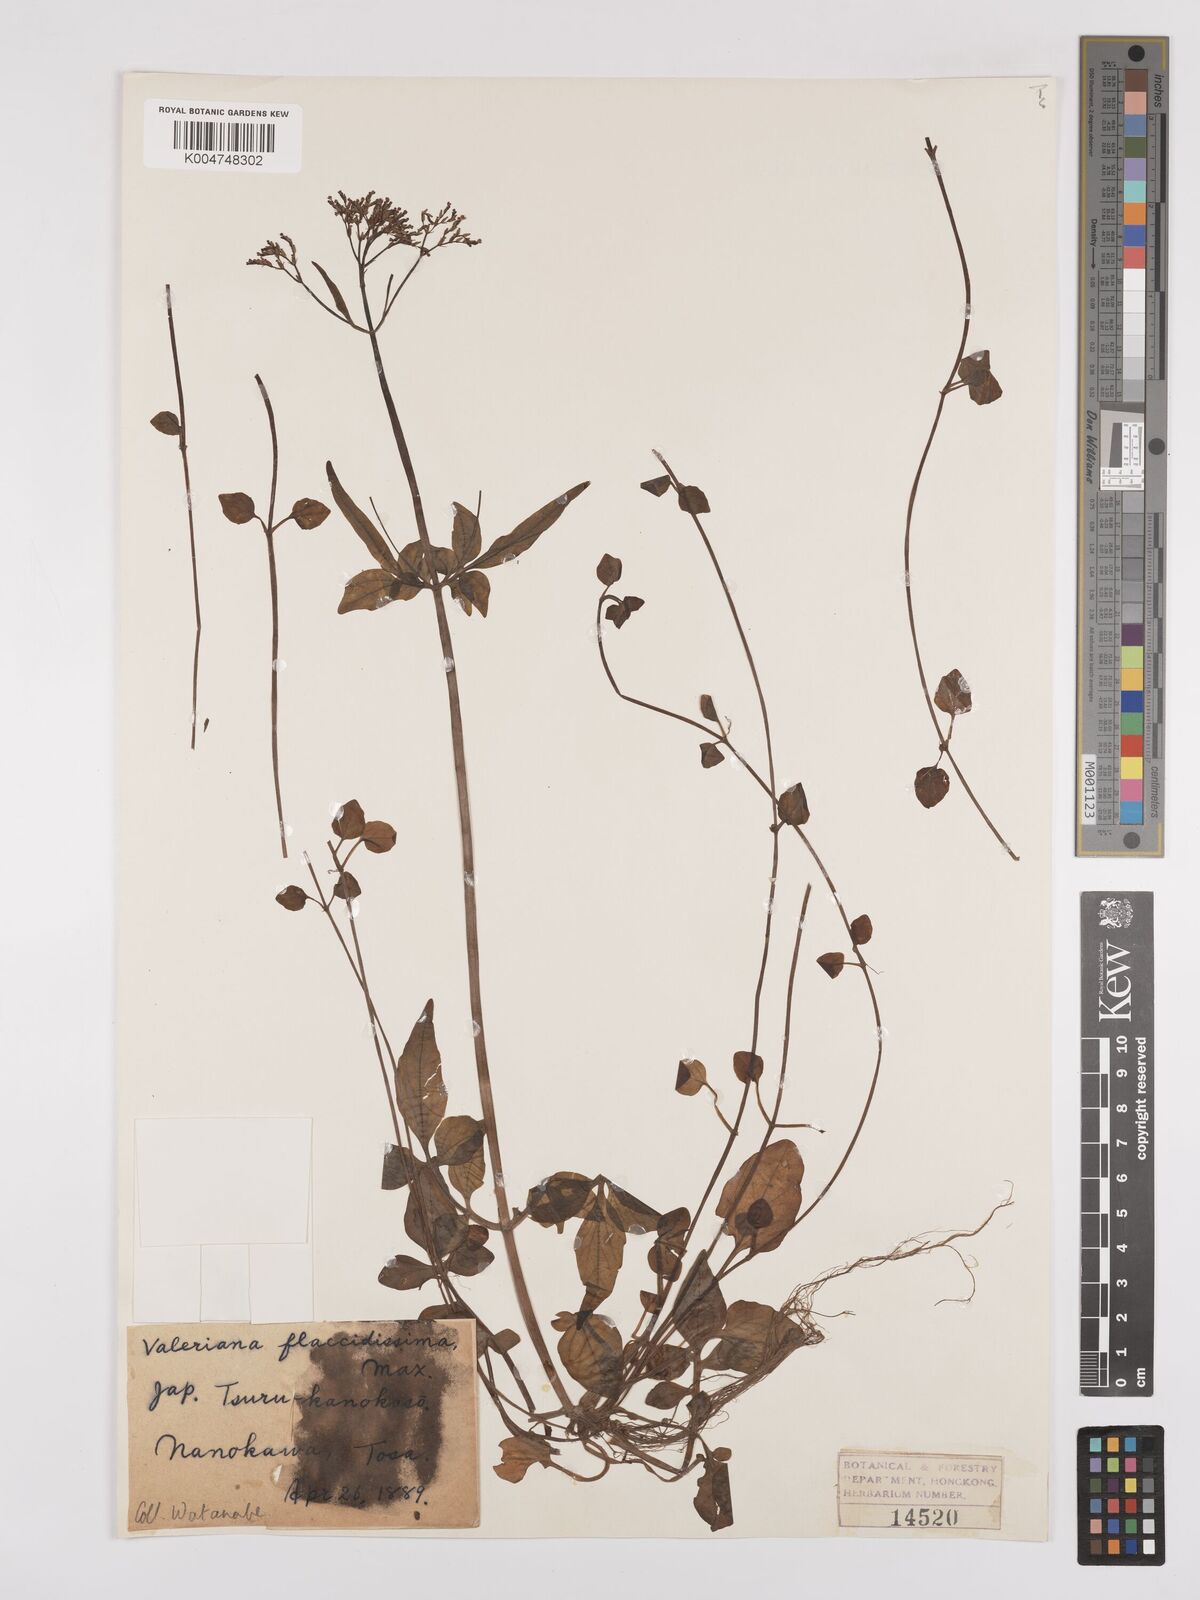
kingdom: Plantae
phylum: Tracheophyta
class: Magnoliopsida
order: Dipsacales
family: Caprifoliaceae
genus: Valeriana
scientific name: Valeriana flaccidissima
